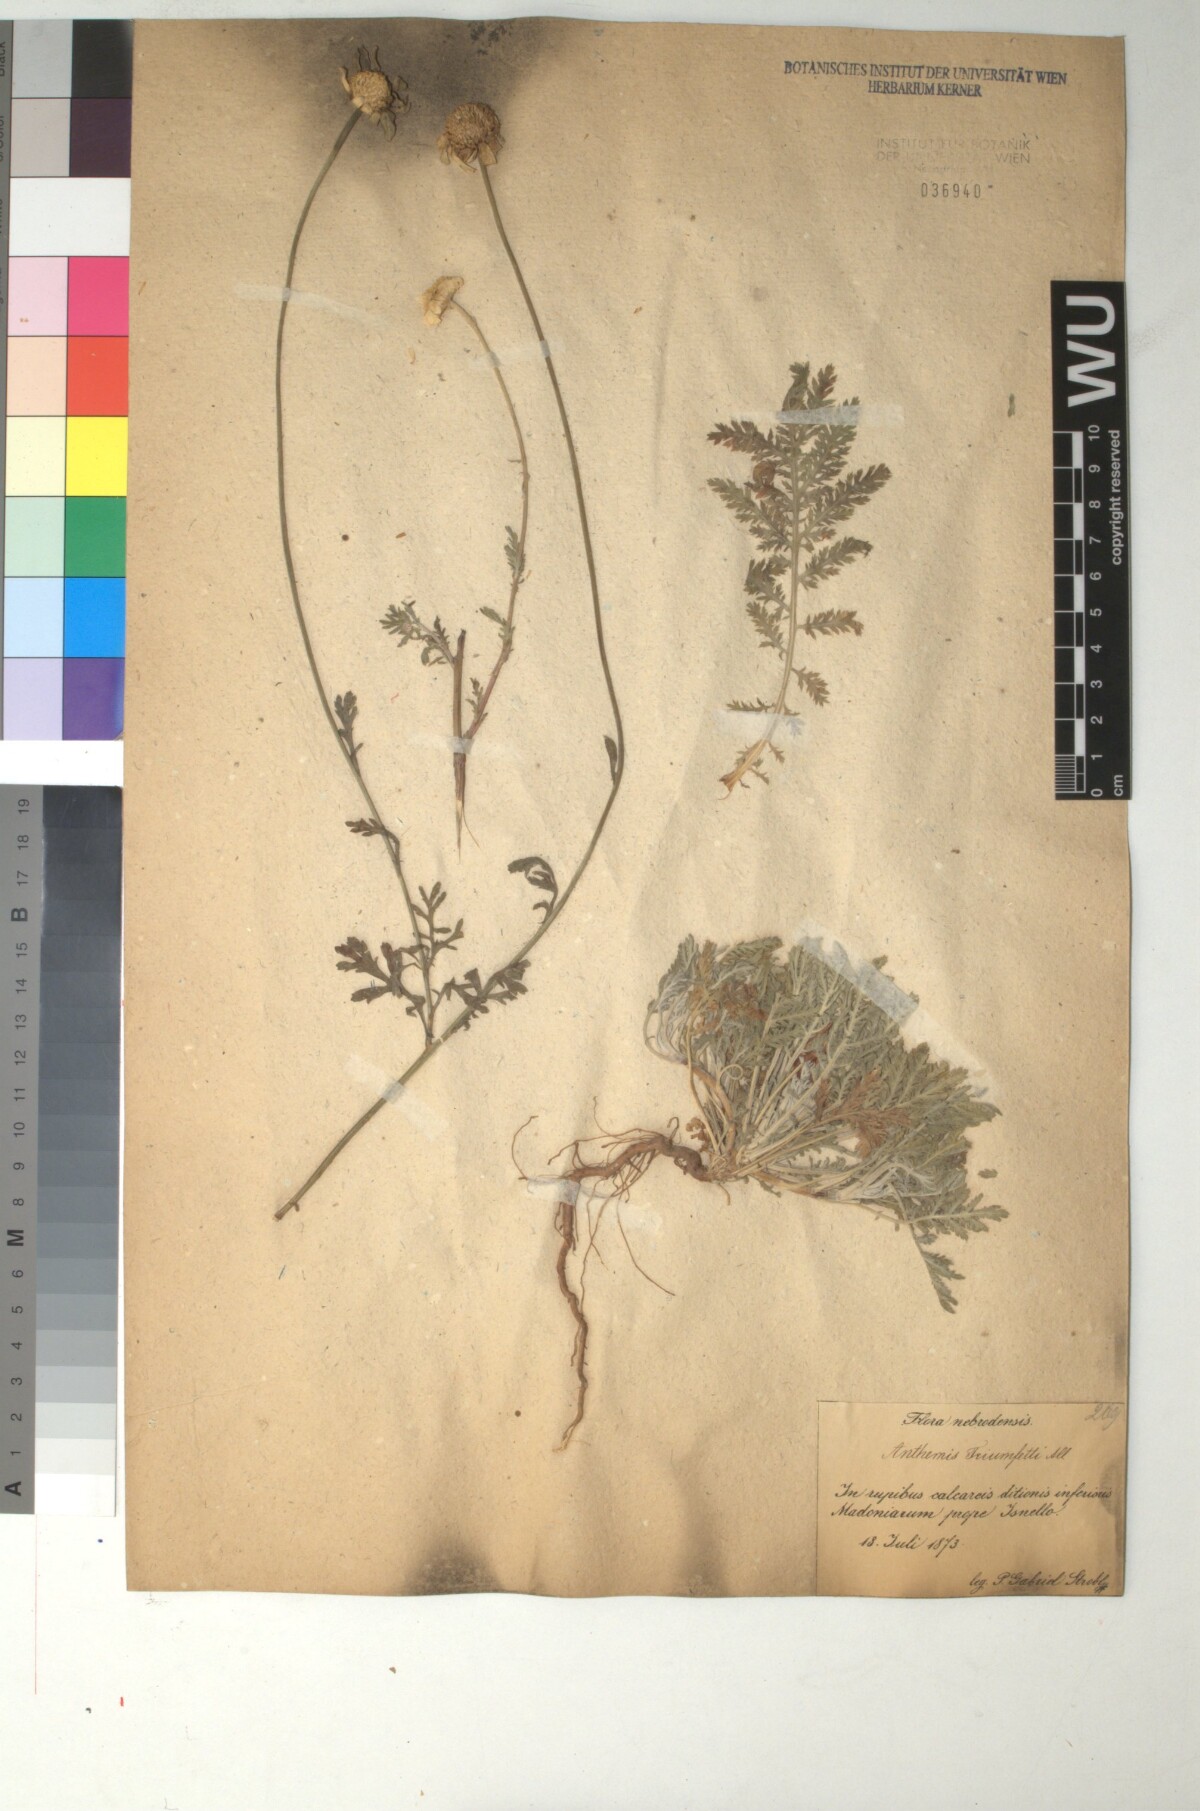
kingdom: Plantae
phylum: Tracheophyta
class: Magnoliopsida
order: Asterales
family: Asteraceae
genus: Cota
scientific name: Cota triumfetti
